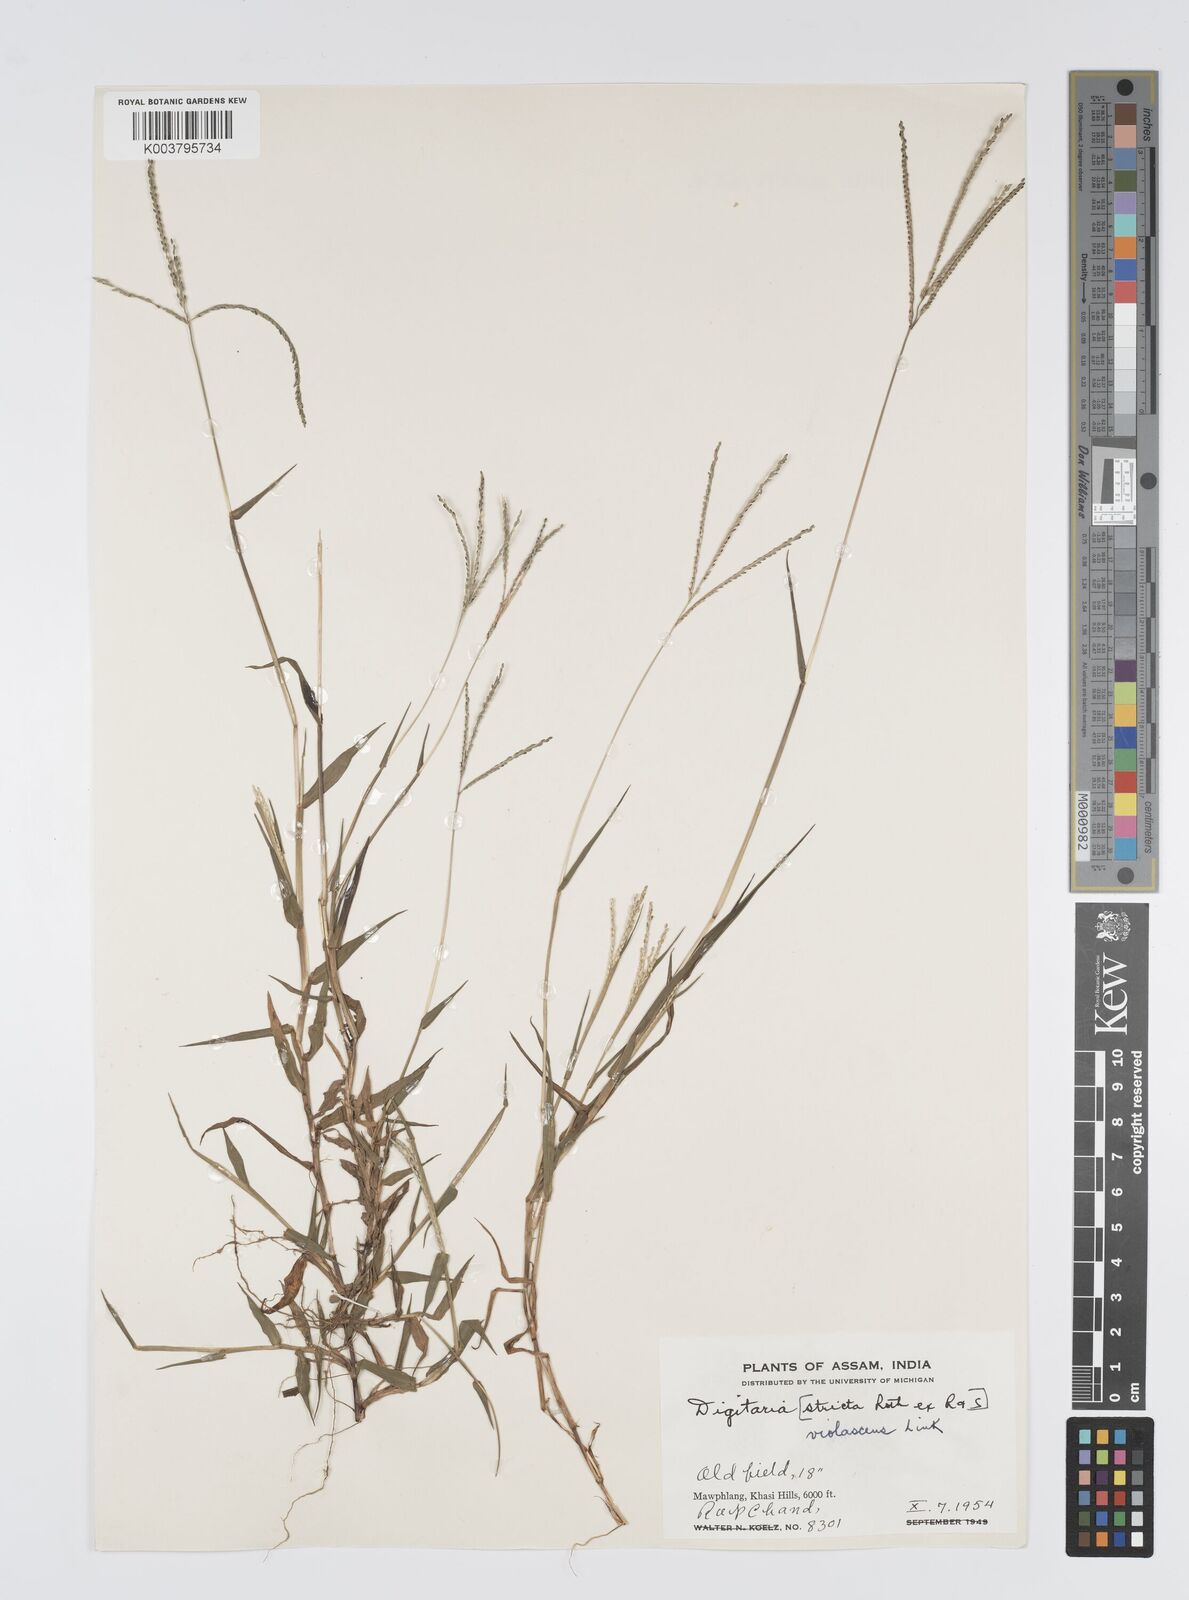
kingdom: Plantae
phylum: Tracheophyta
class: Liliopsida
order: Poales
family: Poaceae
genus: Digitaria
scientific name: Digitaria violascens
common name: Violet crabgrass
